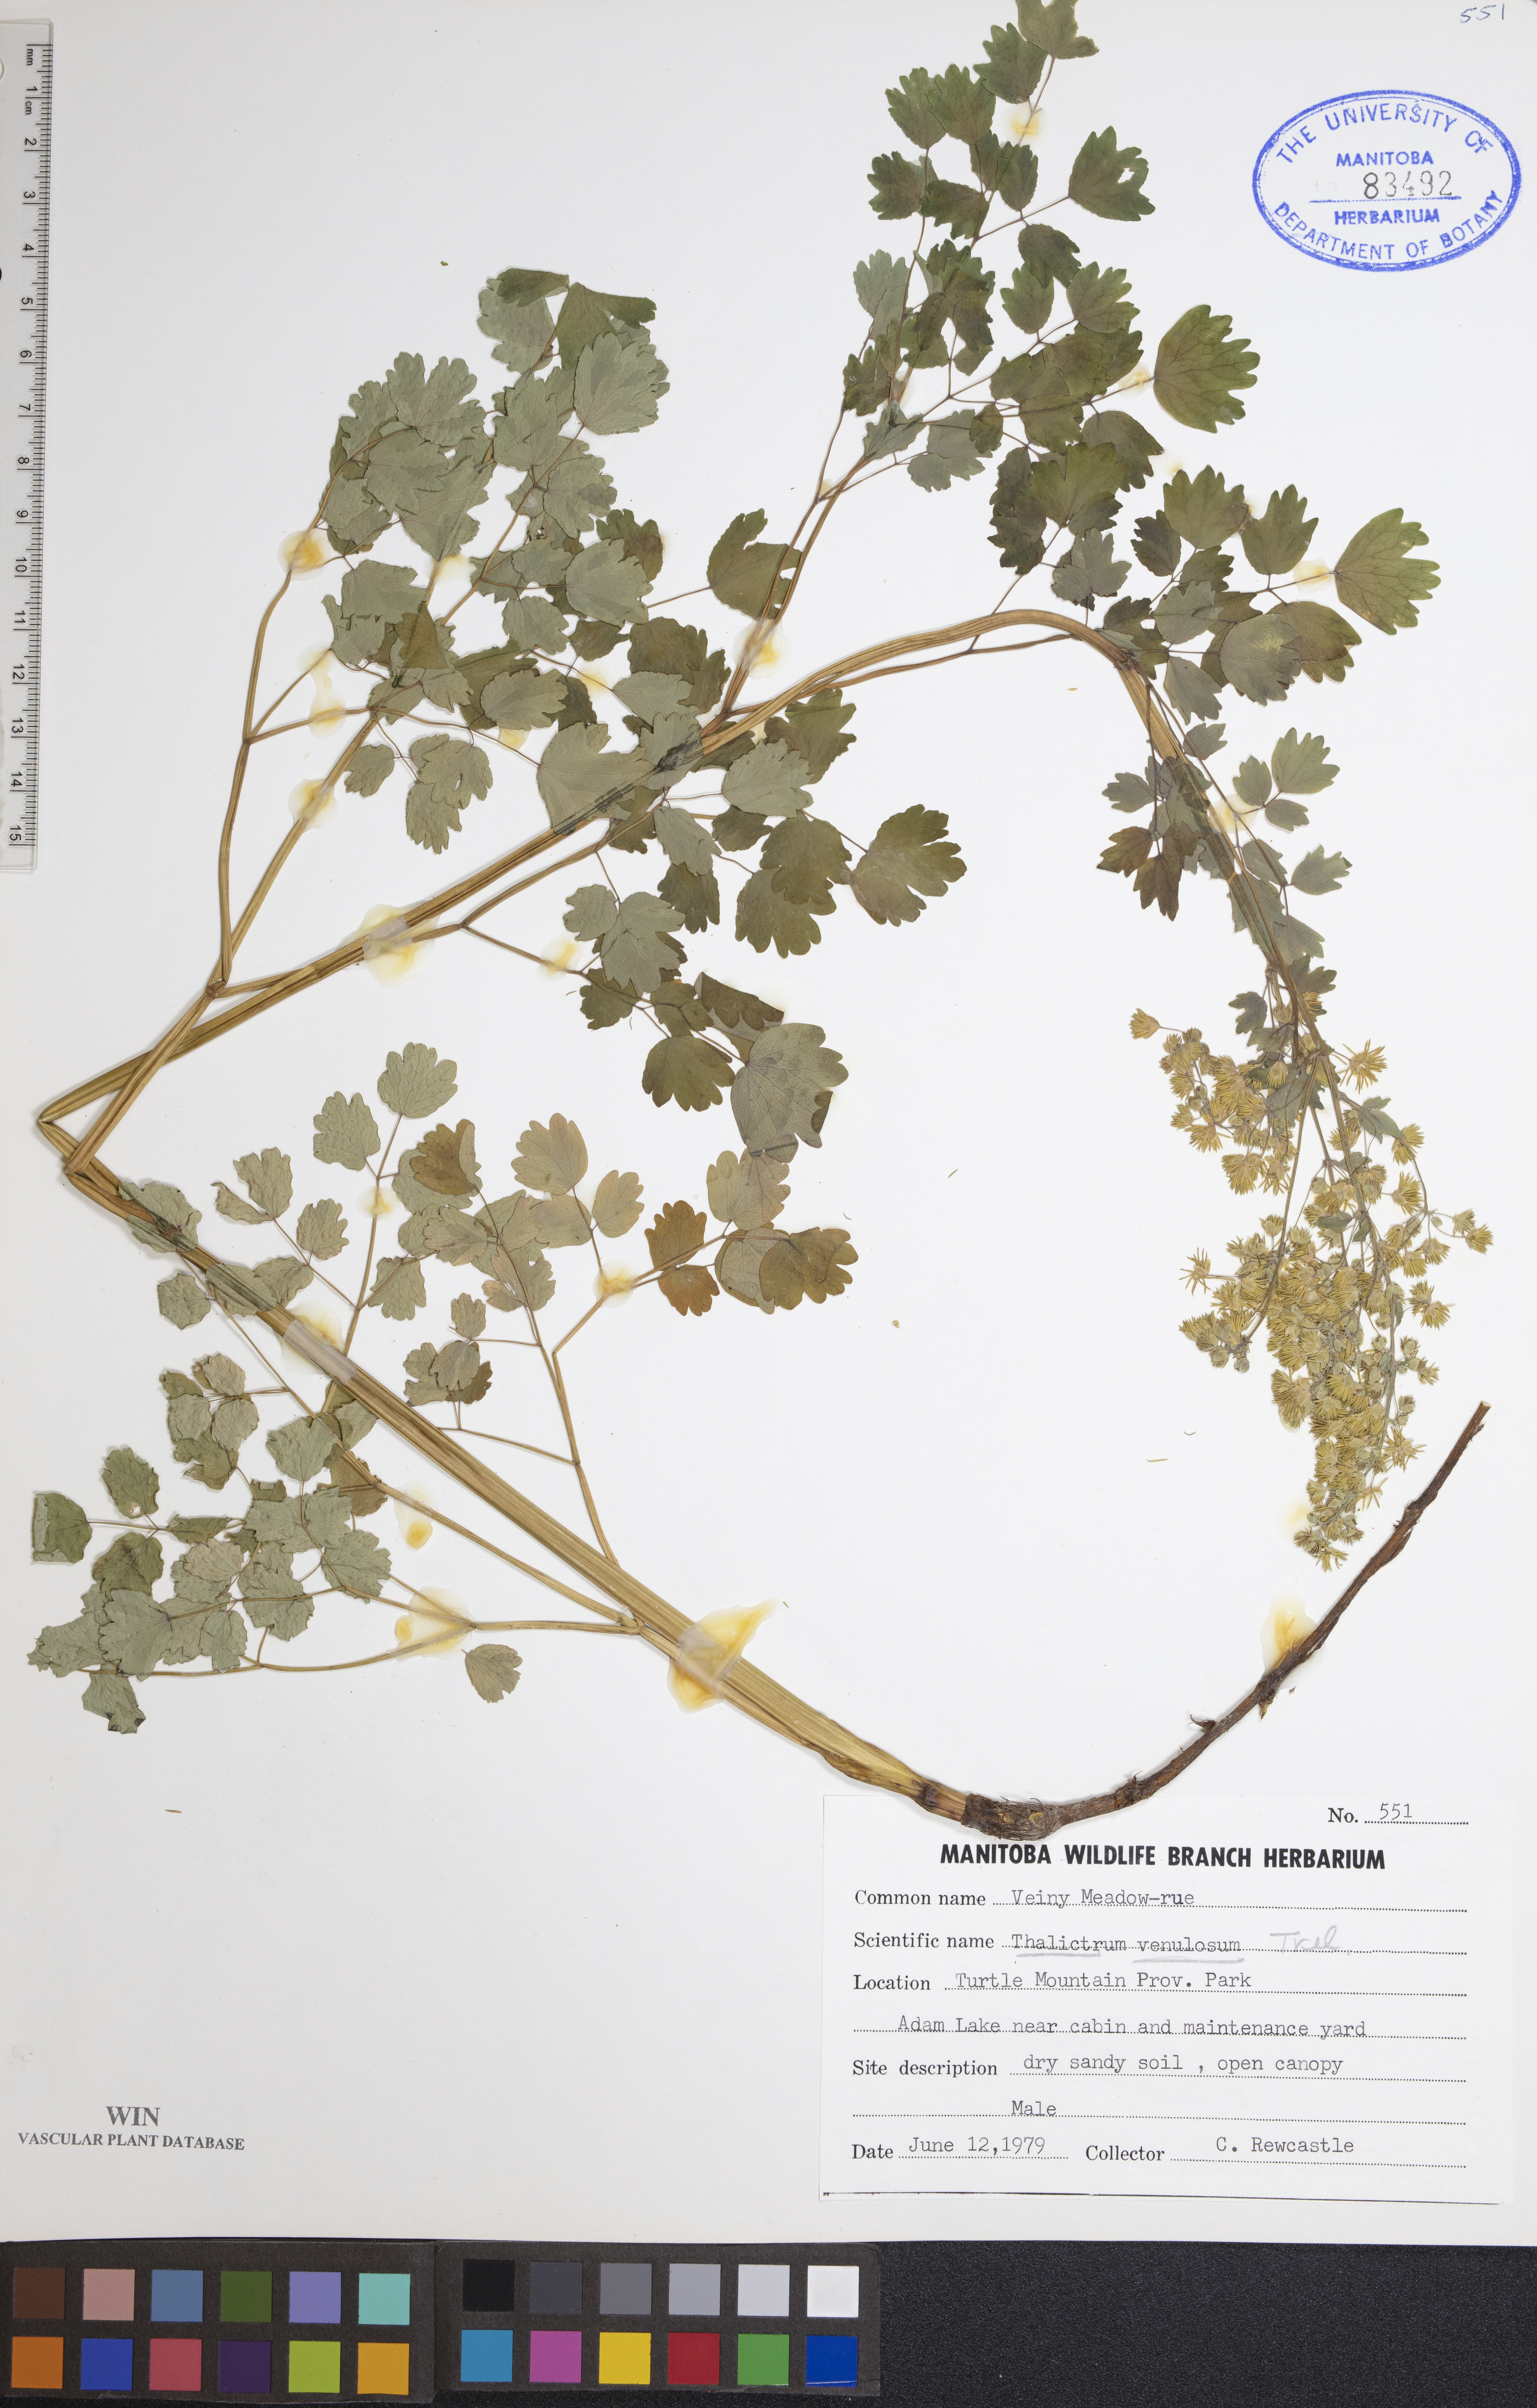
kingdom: Plantae
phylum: Tracheophyta
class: Magnoliopsida
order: Ranunculales
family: Ranunculaceae
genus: Thalictrum
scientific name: Thalictrum venulosum
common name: Early meadow-rue
